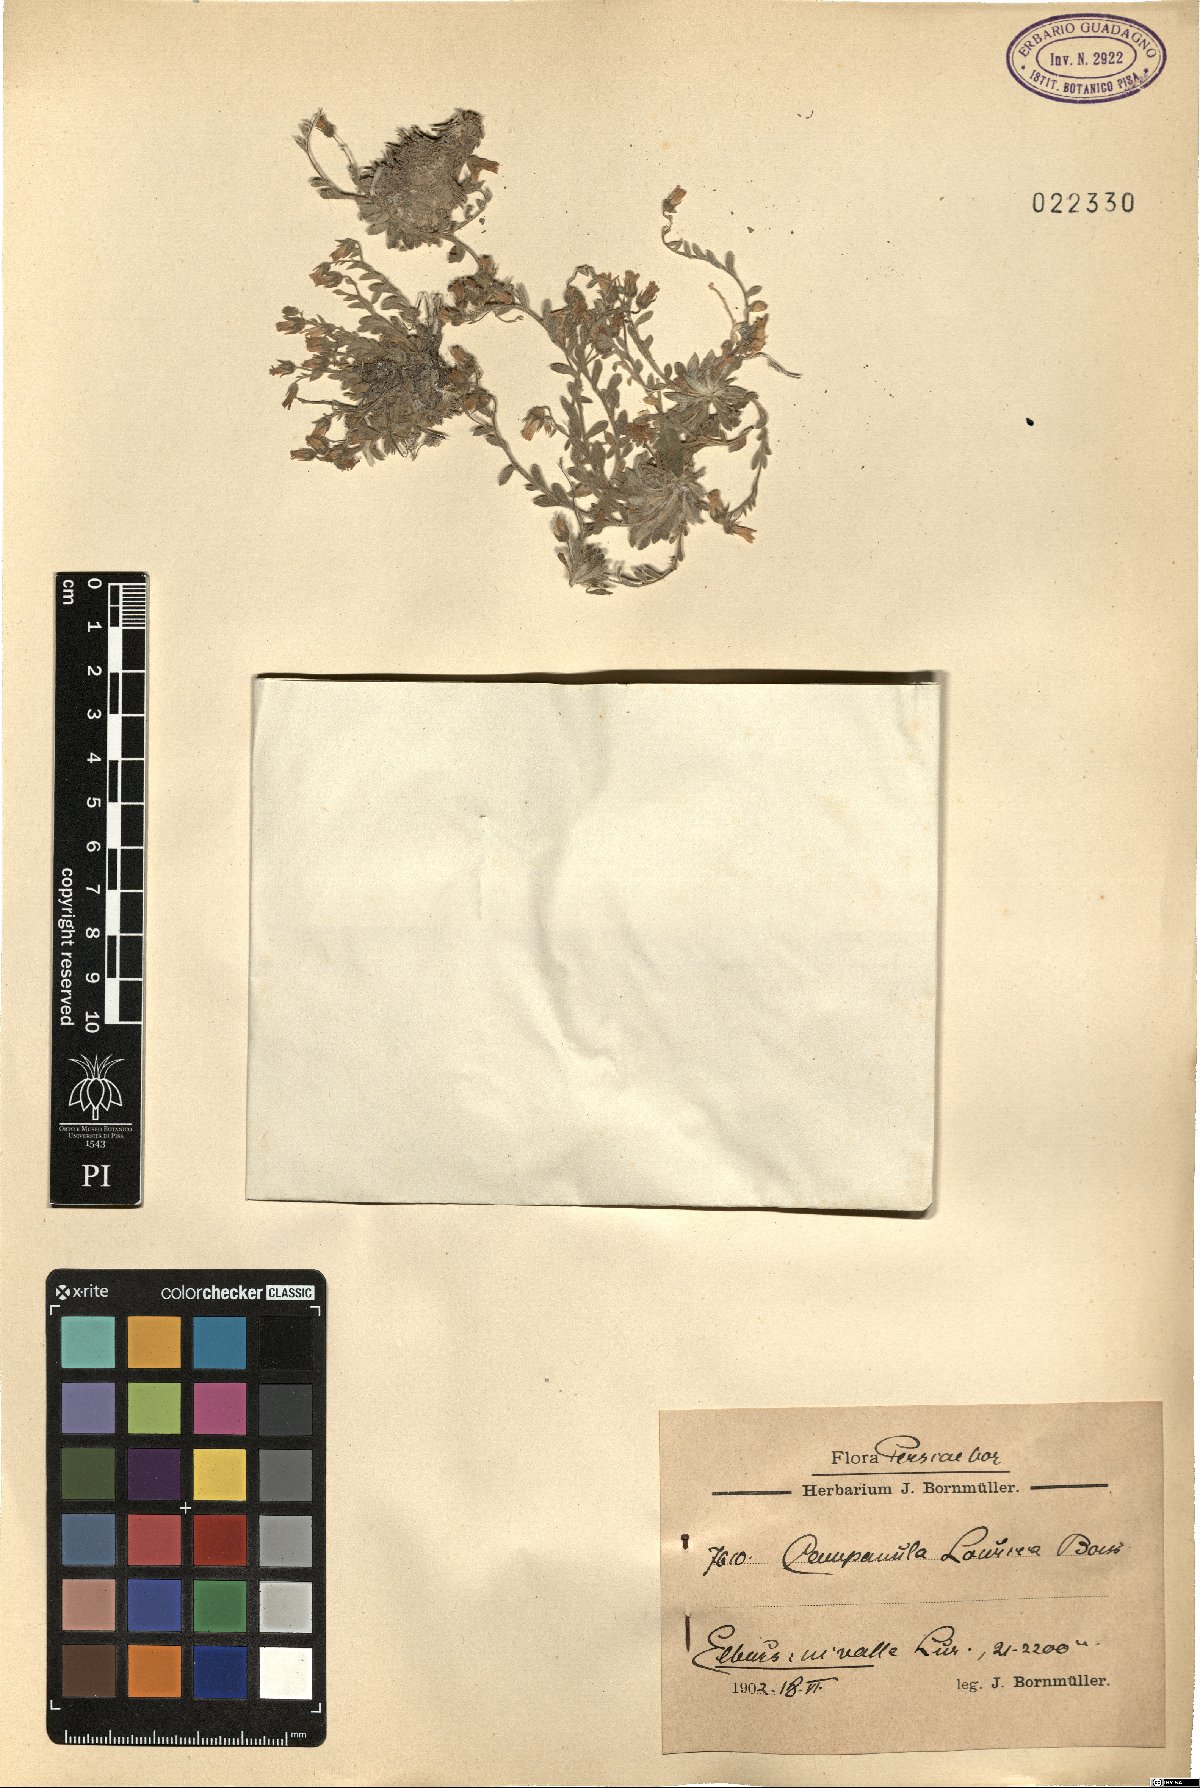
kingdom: Plantae
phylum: Tracheophyta
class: Magnoliopsida
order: Asterales
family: Campanulaceae
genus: Campanula
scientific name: Campanula lourica
